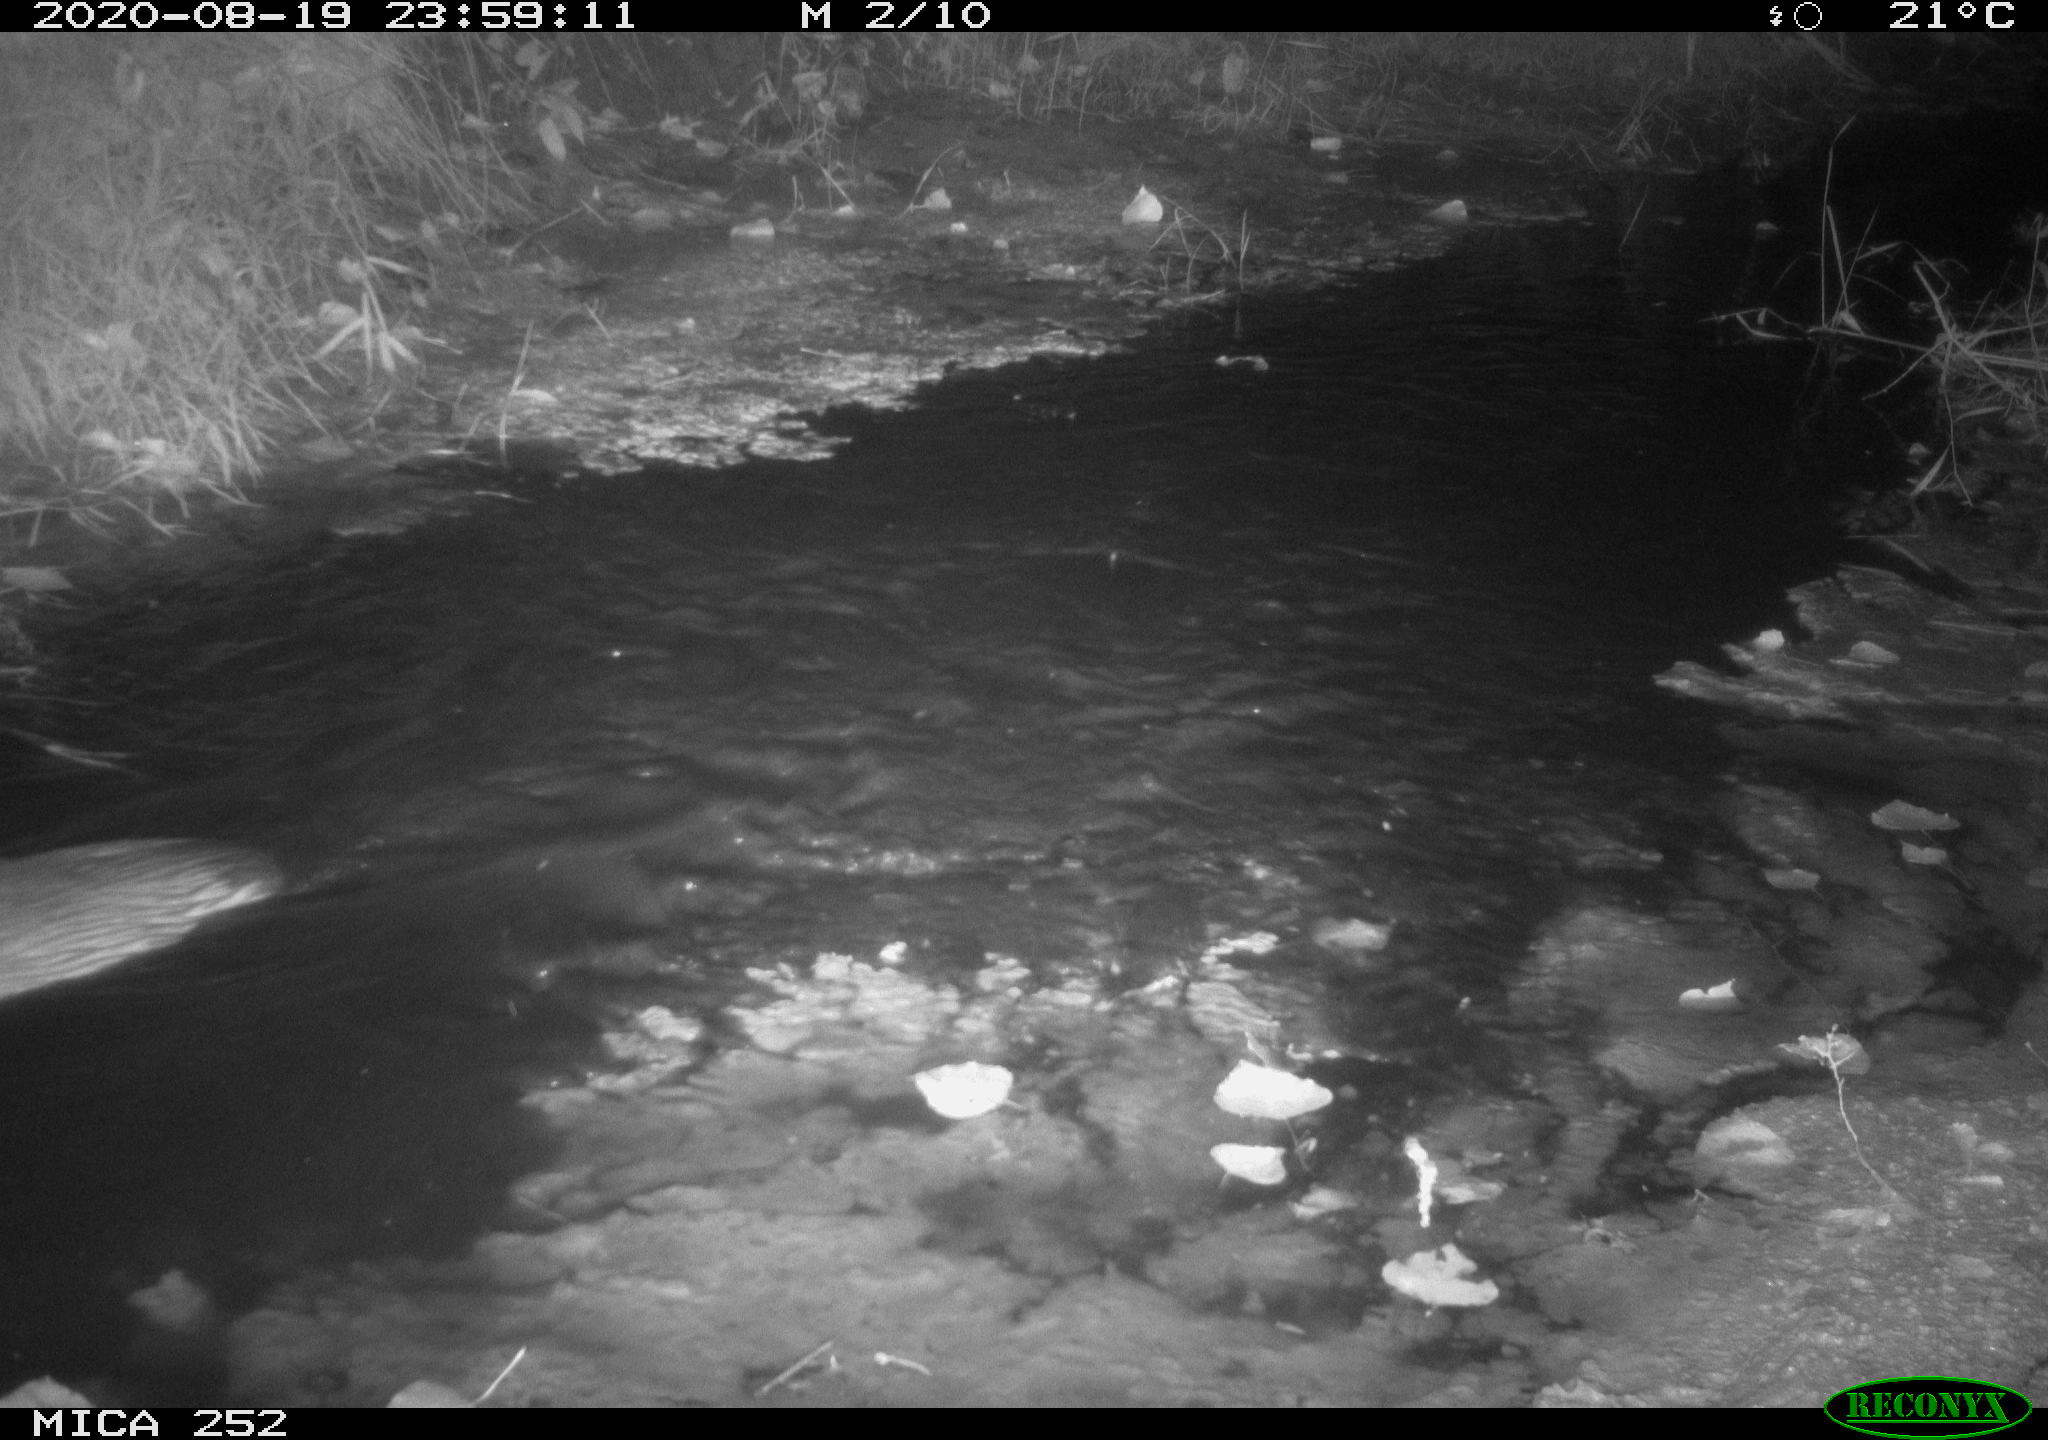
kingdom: Animalia
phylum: Chordata
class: Mammalia
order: Rodentia
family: Castoridae
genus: Castor
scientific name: Castor fiber
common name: Eurasian beaver
